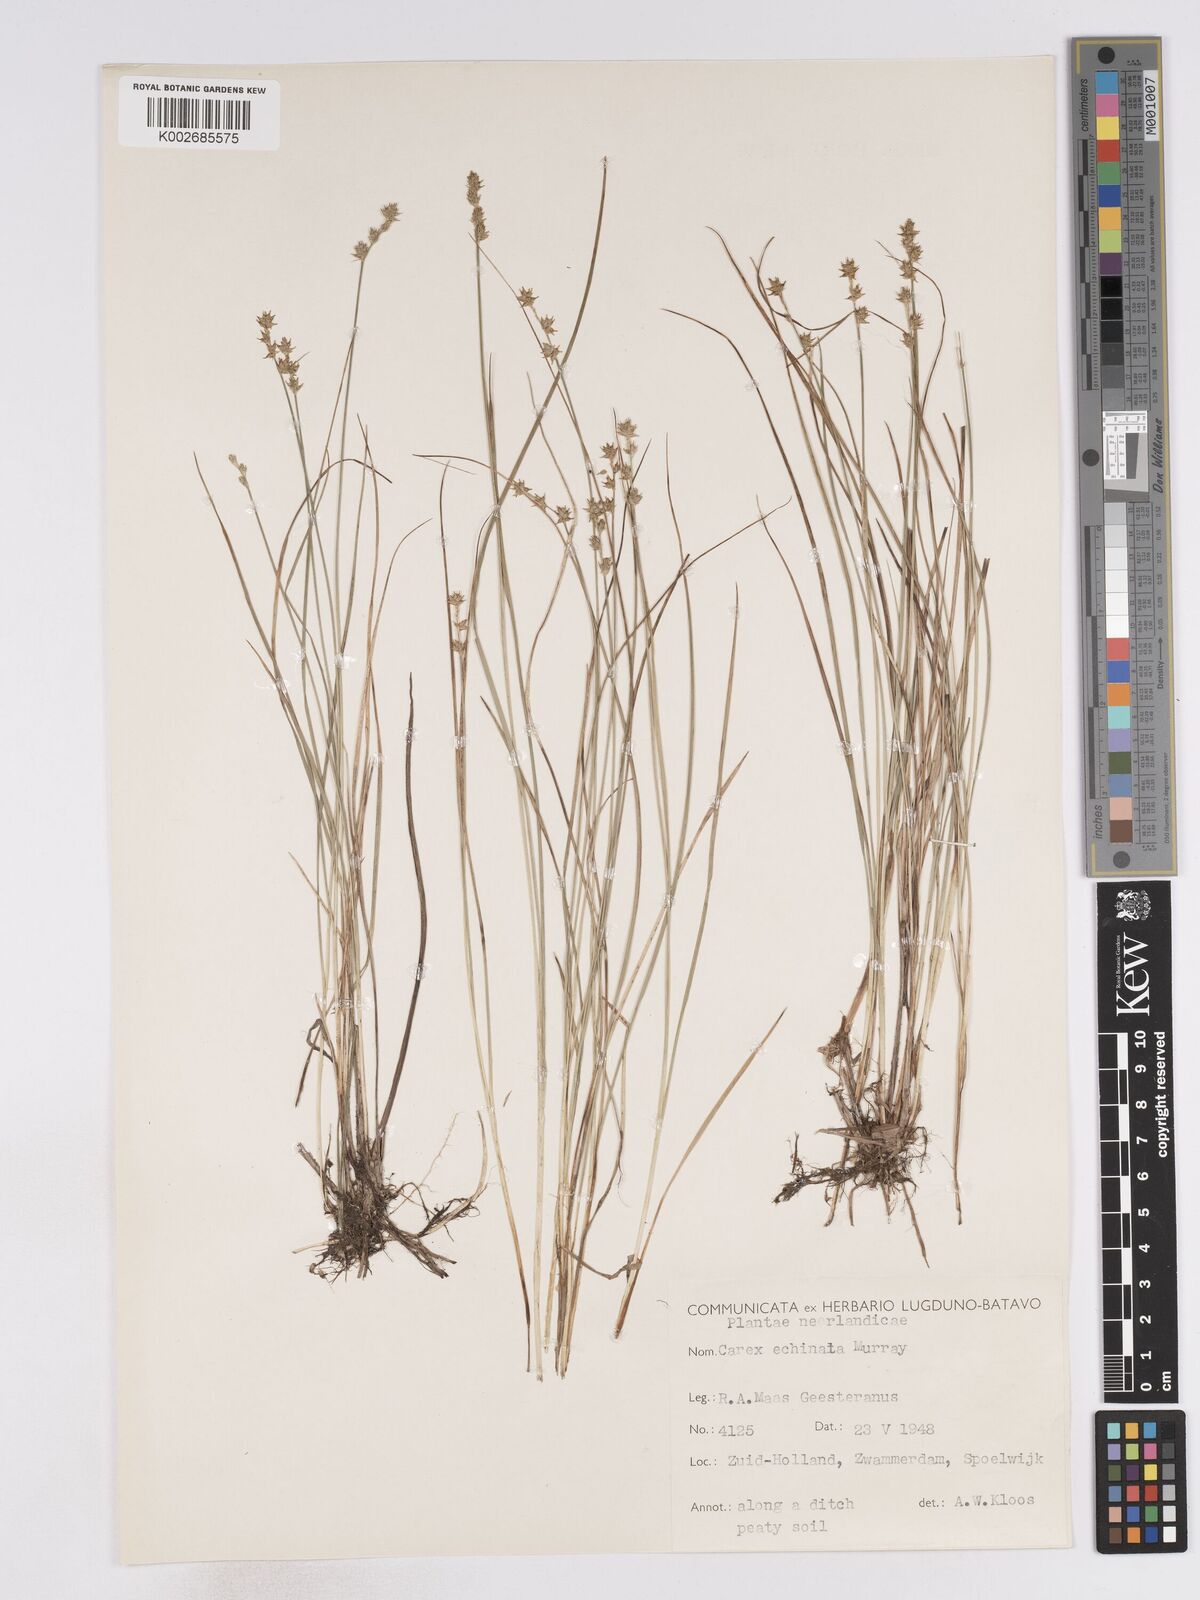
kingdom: Plantae
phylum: Tracheophyta
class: Liliopsida
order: Poales
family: Cyperaceae
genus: Carex
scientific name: Carex echinata
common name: Star sedge
